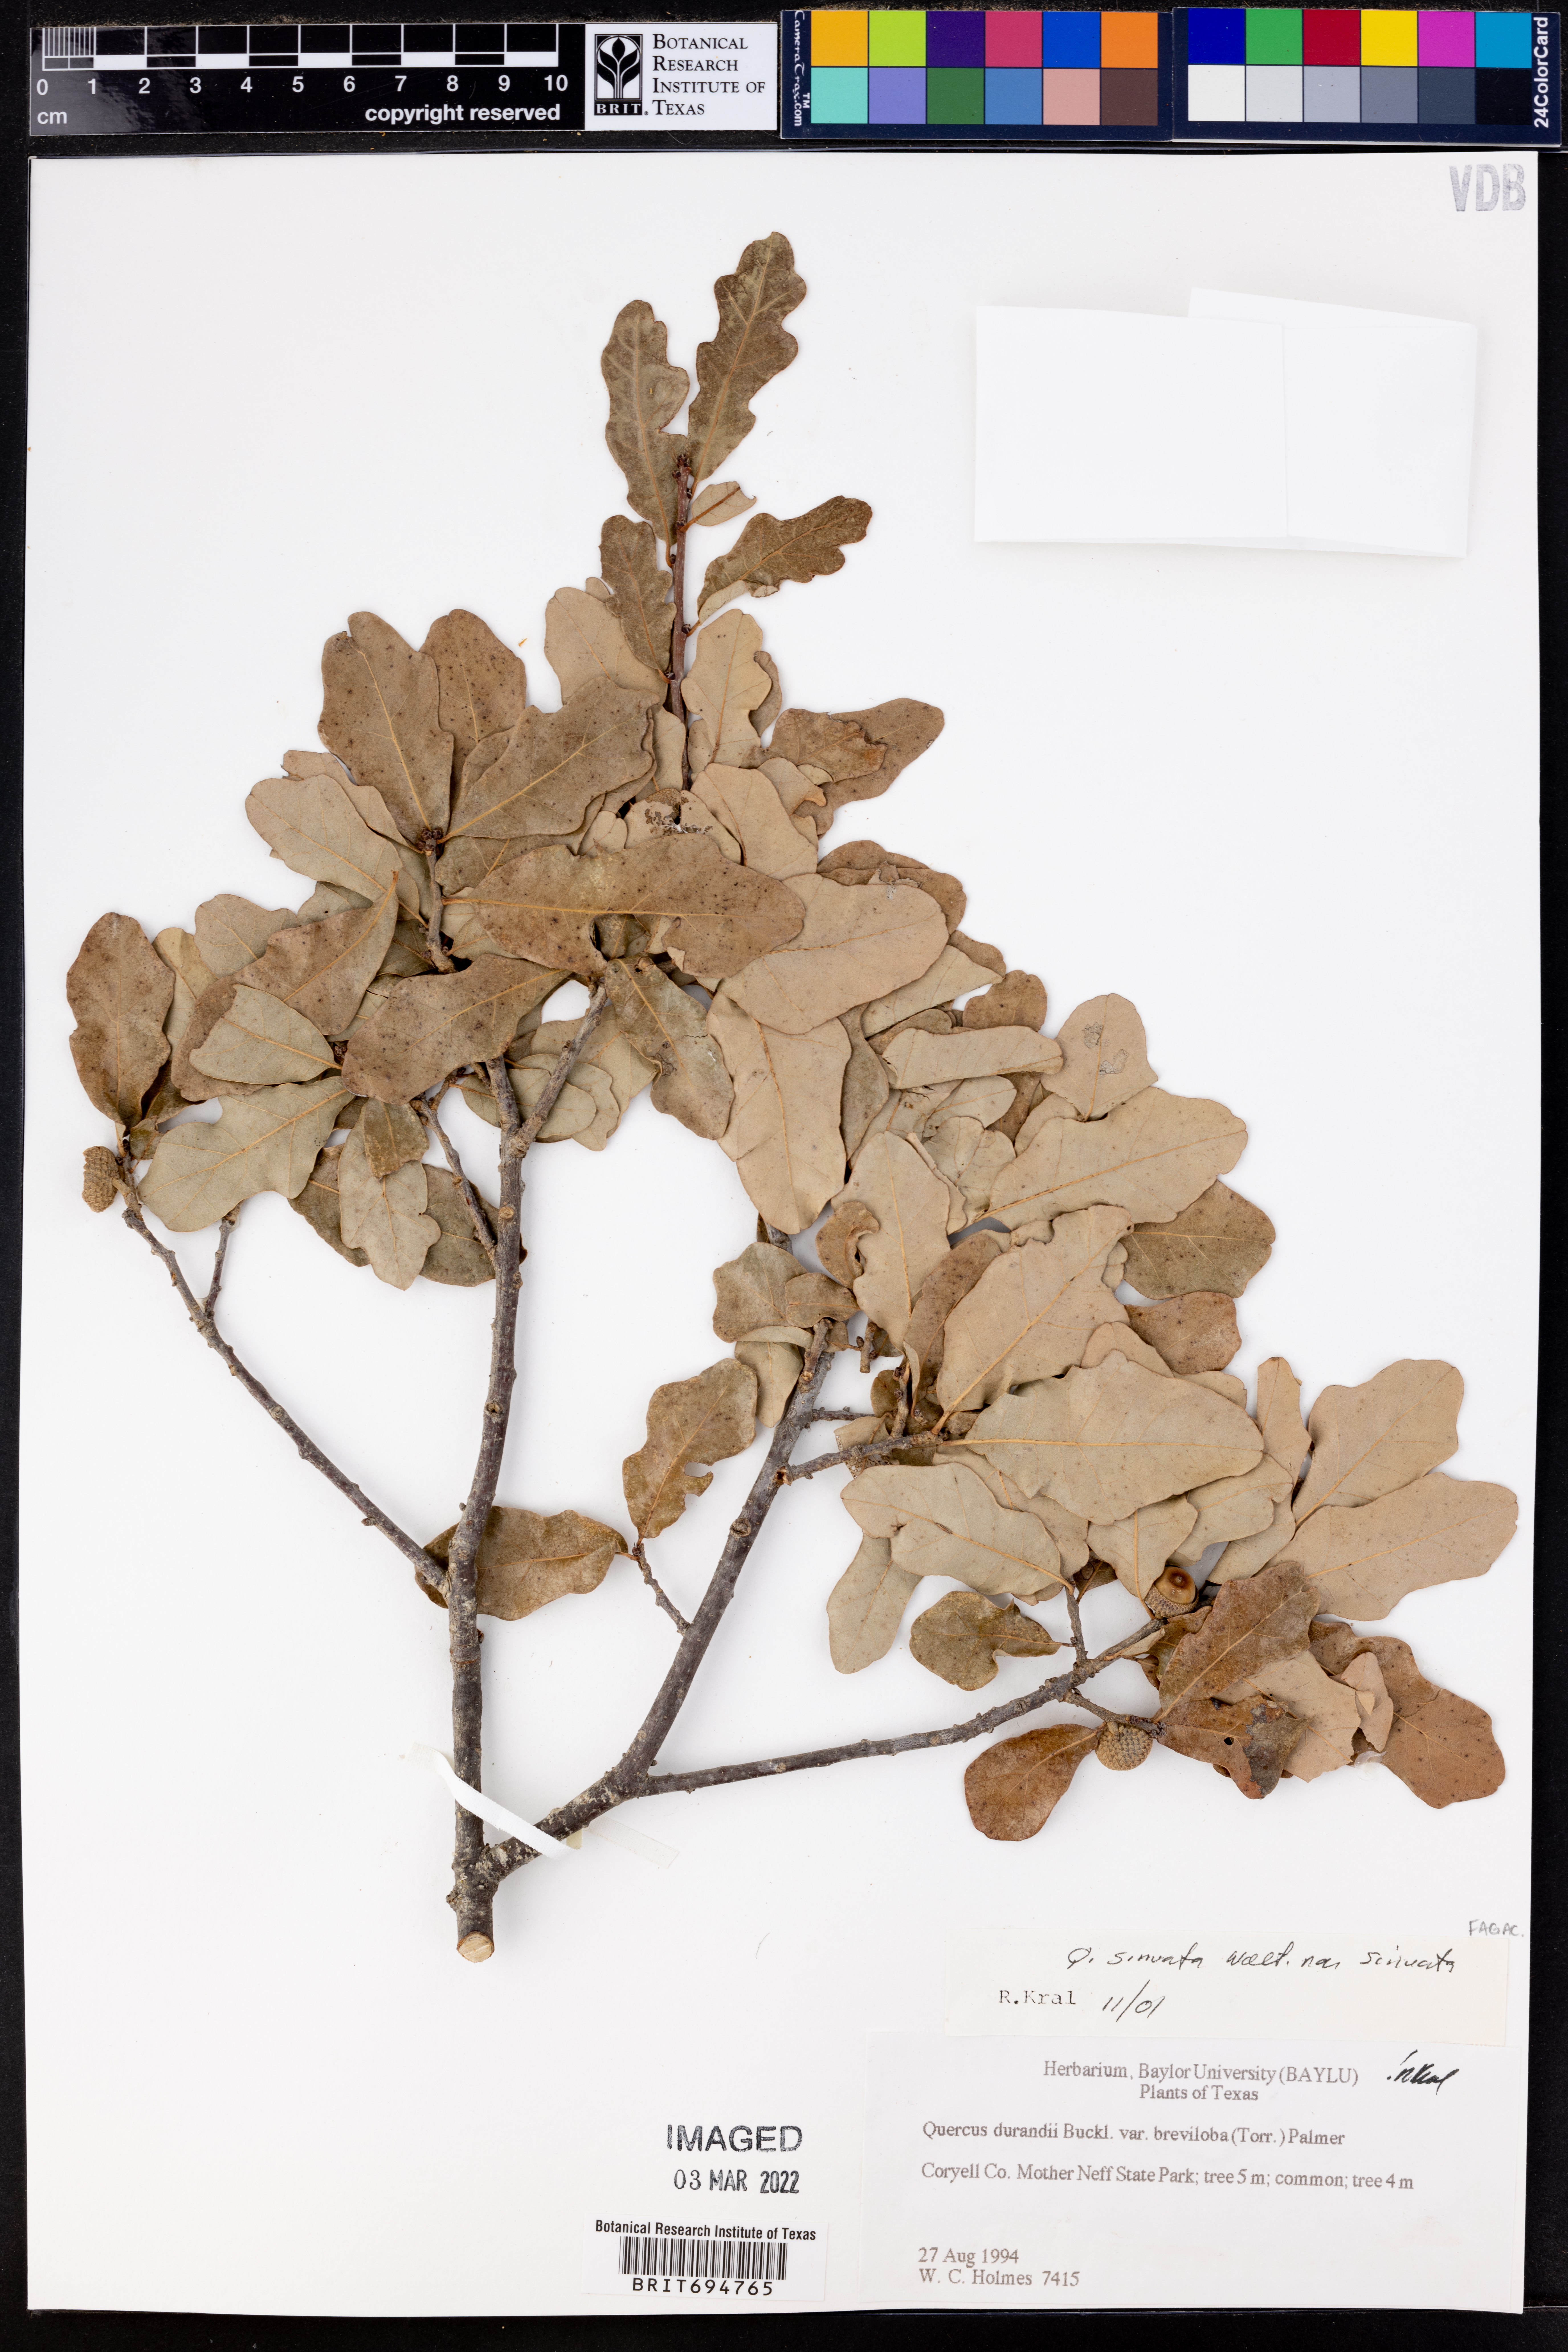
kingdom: Plantae
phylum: Tracheophyta
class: Magnoliopsida
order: Fagales
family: Fagaceae
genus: Quercus
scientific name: Quercus sinuata
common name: Durand oak
